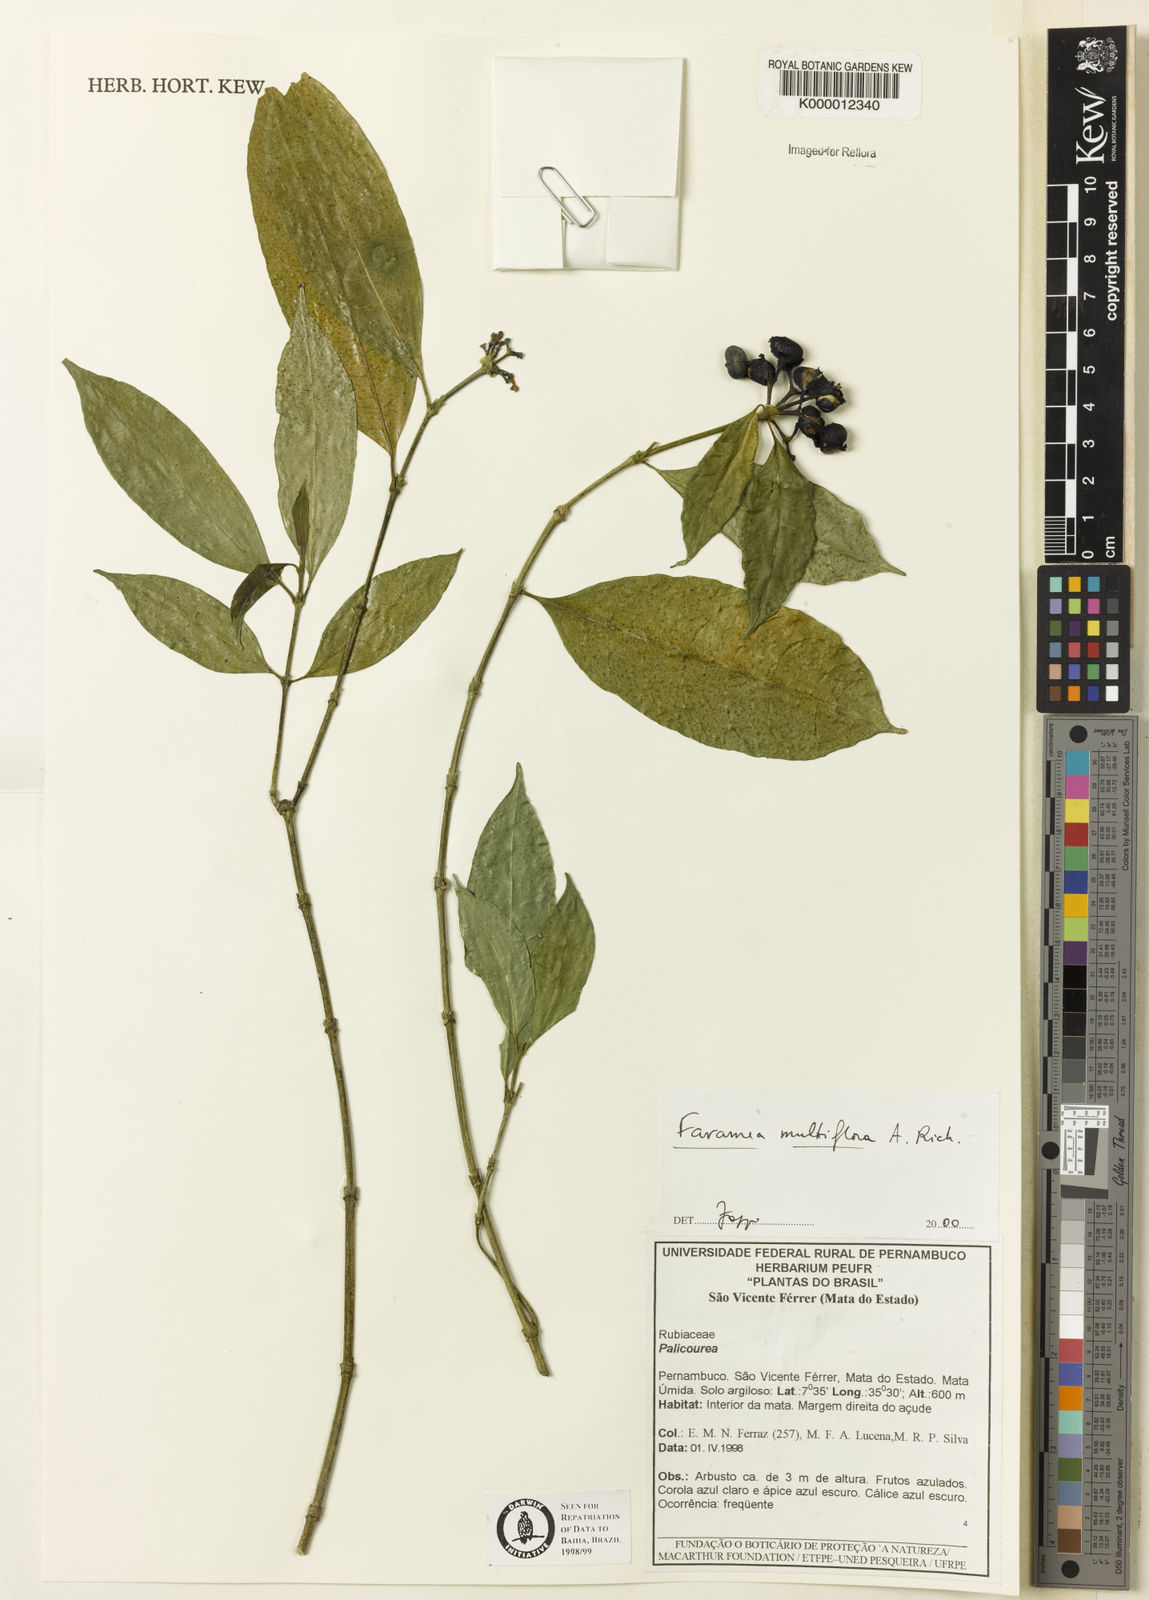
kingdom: Plantae
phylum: Tracheophyta
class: Magnoliopsida
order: Gentianales
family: Rubiaceae
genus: Faramea
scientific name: Faramea multiflora
